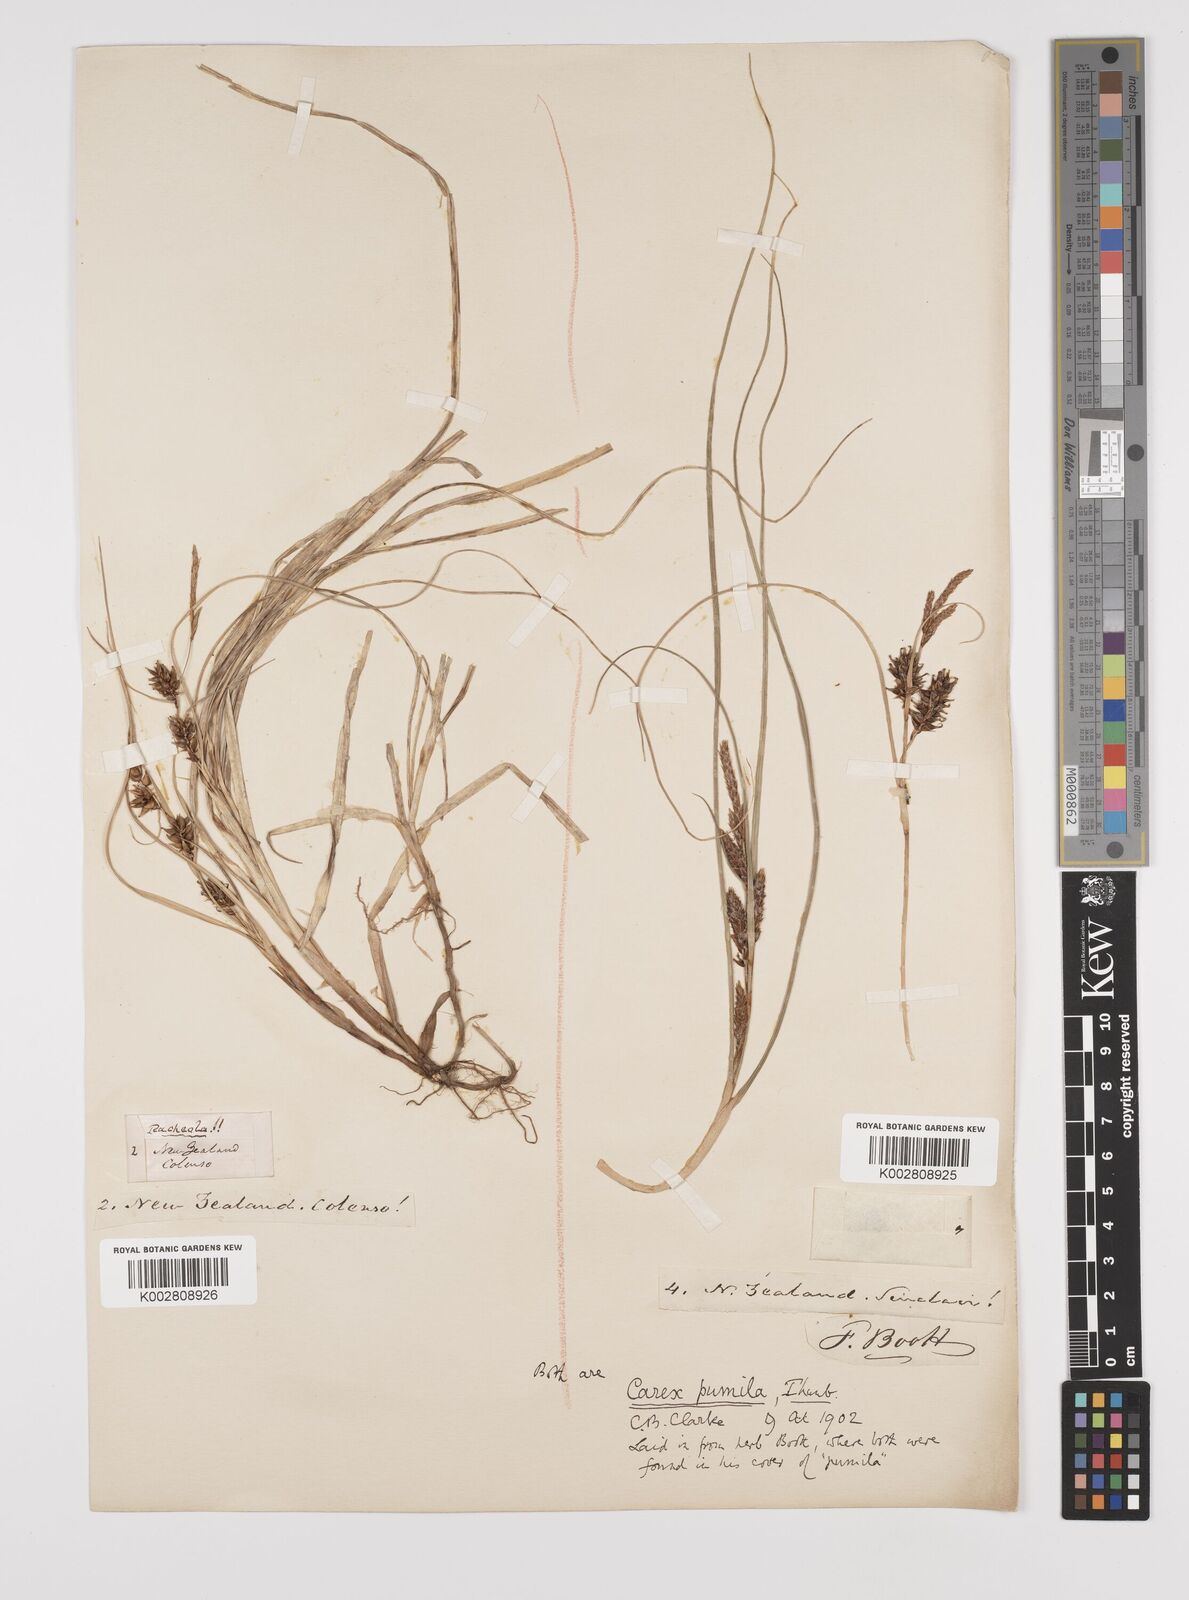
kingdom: Plantae
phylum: Tracheophyta
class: Liliopsida
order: Poales
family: Cyperaceae
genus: Carex
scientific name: Carex pumila
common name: Dwarf sedge
